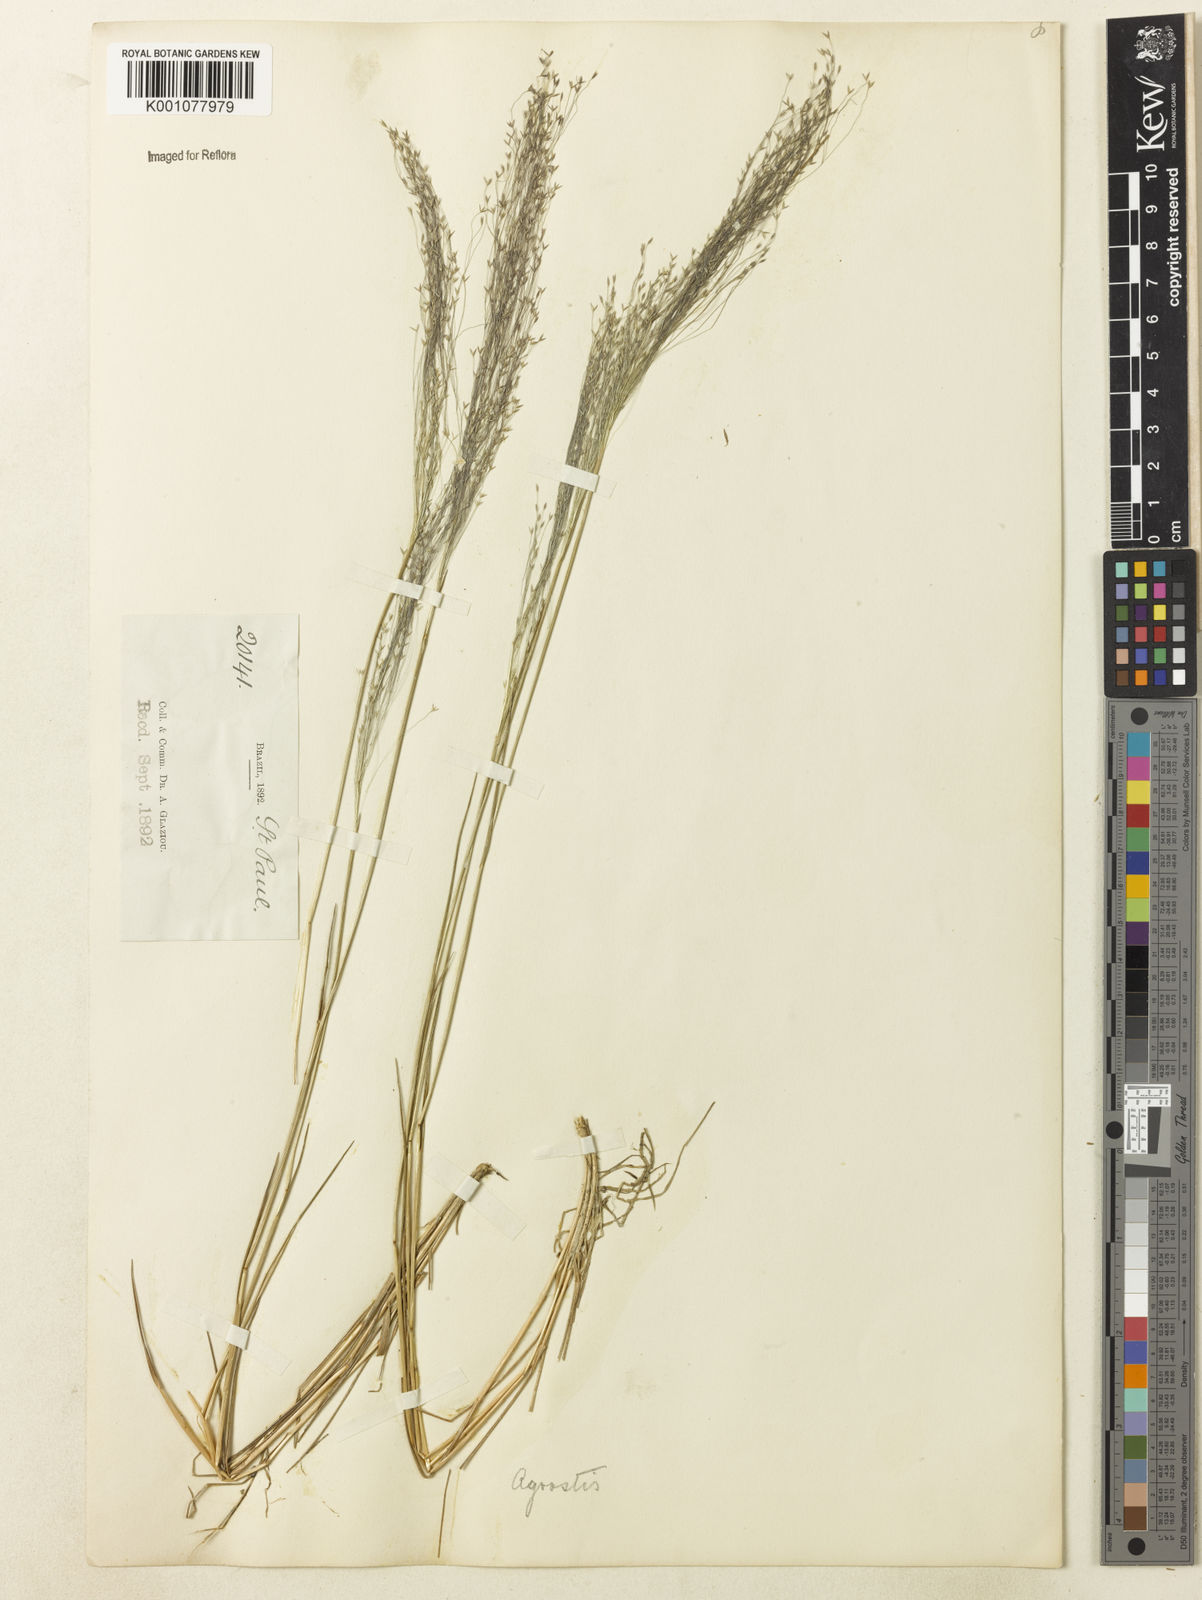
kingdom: Plantae
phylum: Tracheophyta
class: Liliopsida
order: Poales
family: Poaceae
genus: Agrostis
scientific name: Agrostis montevidensis
